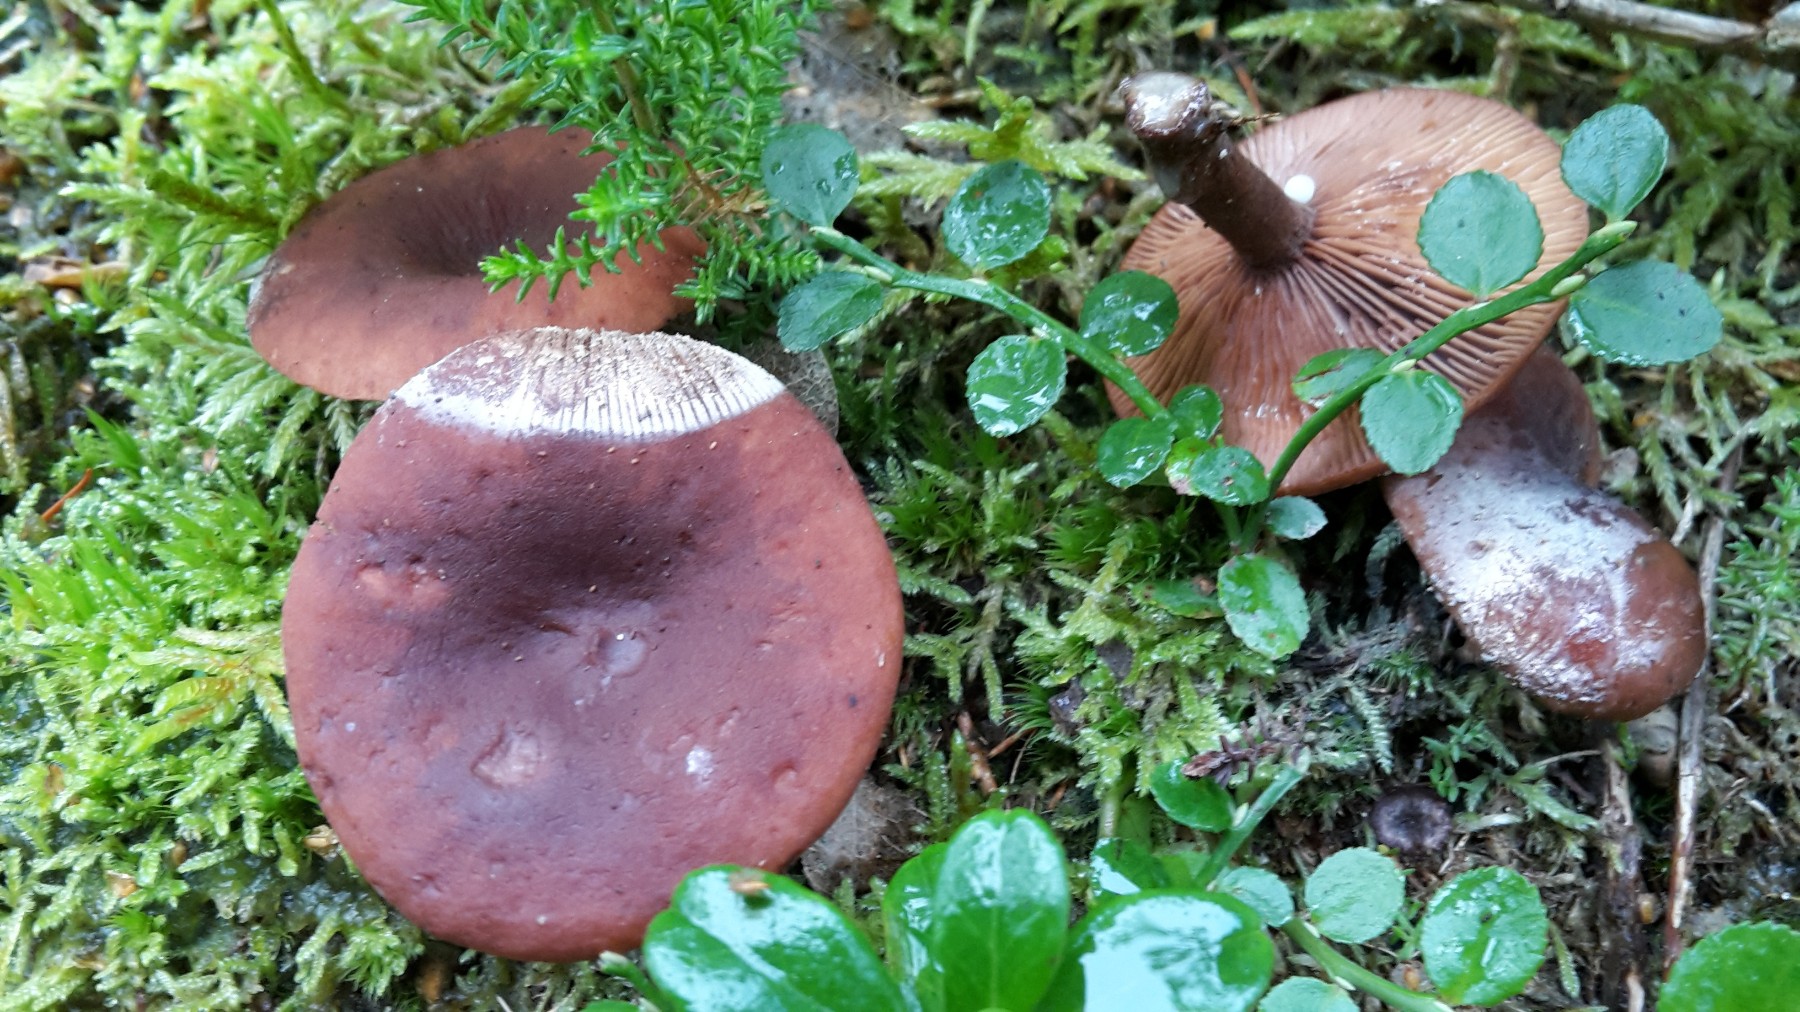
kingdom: Fungi
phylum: Basidiomycota
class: Agaricomycetes
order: Russulales
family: Russulaceae
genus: Lactarius
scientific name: Lactarius camphoratus
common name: kamfer-mælkehat
